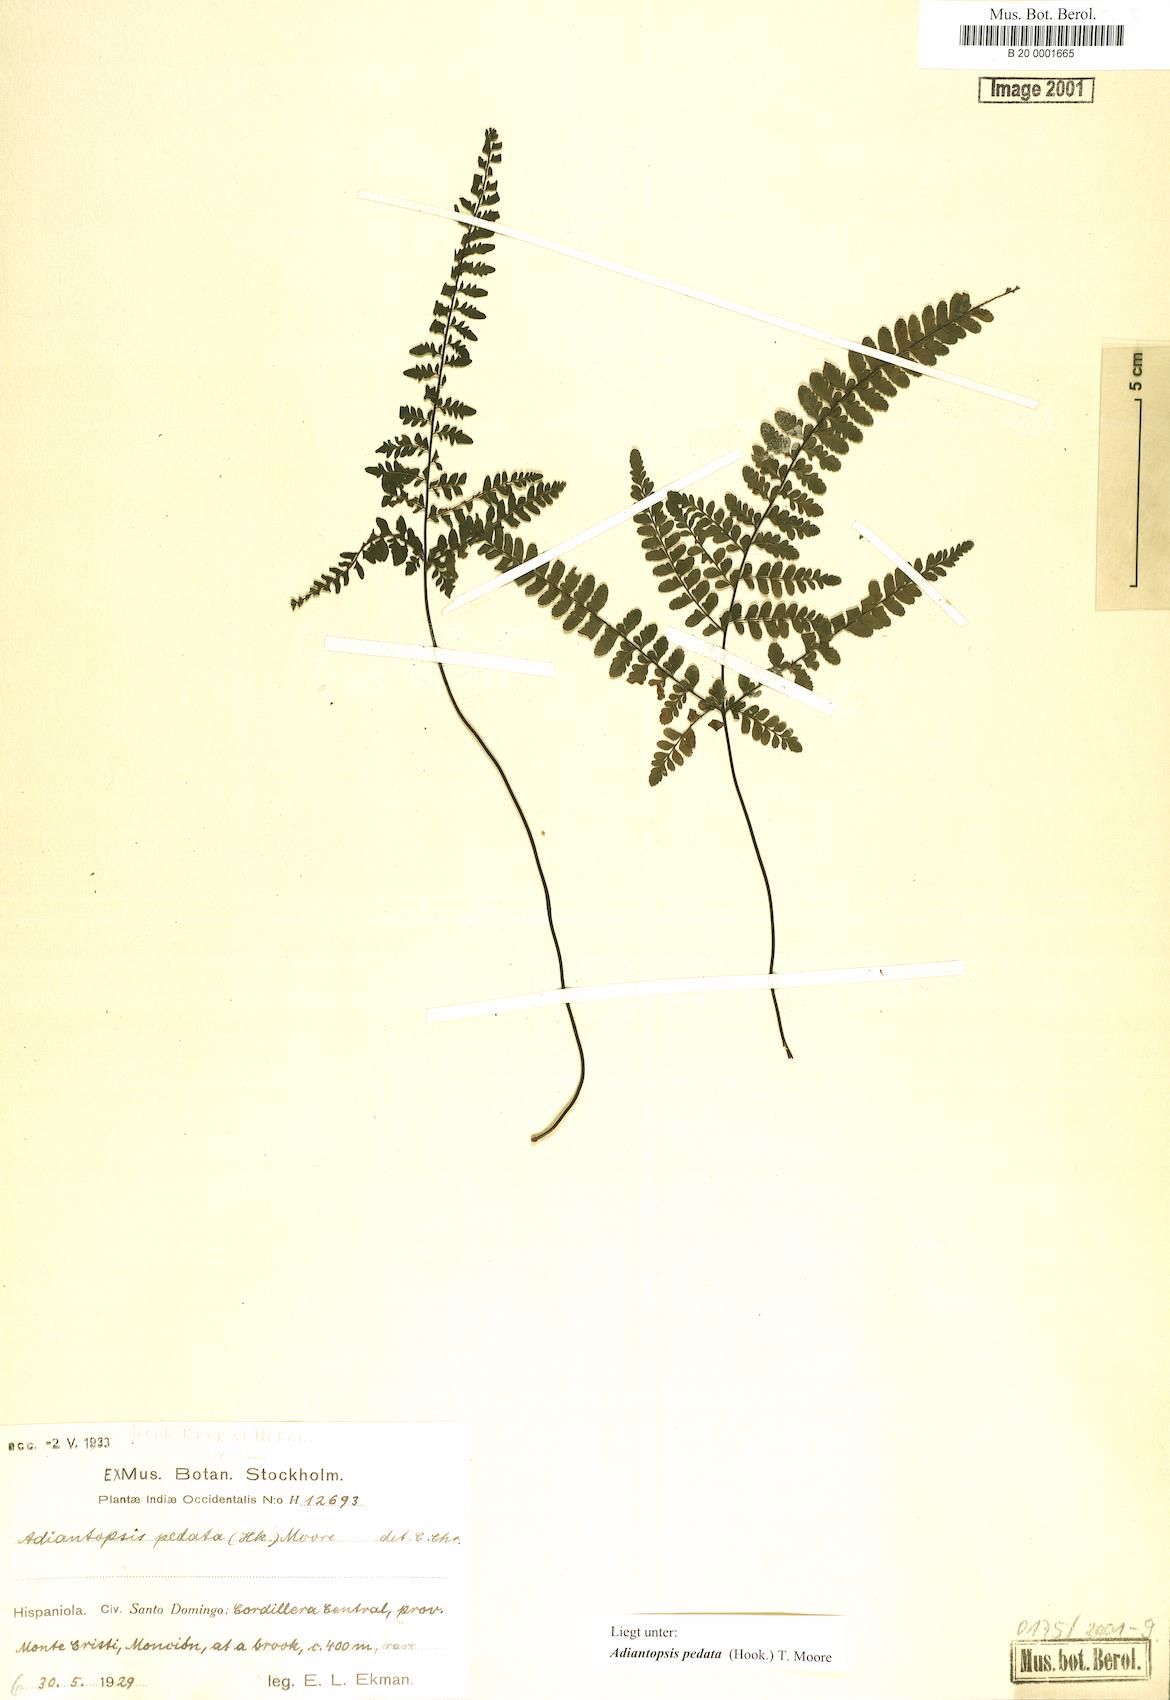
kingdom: Plantae
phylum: Tracheophyta
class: Polypodiopsida
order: Polypodiales
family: Pteridaceae
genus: Adiantopsis
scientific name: Adiantopsis pedata
